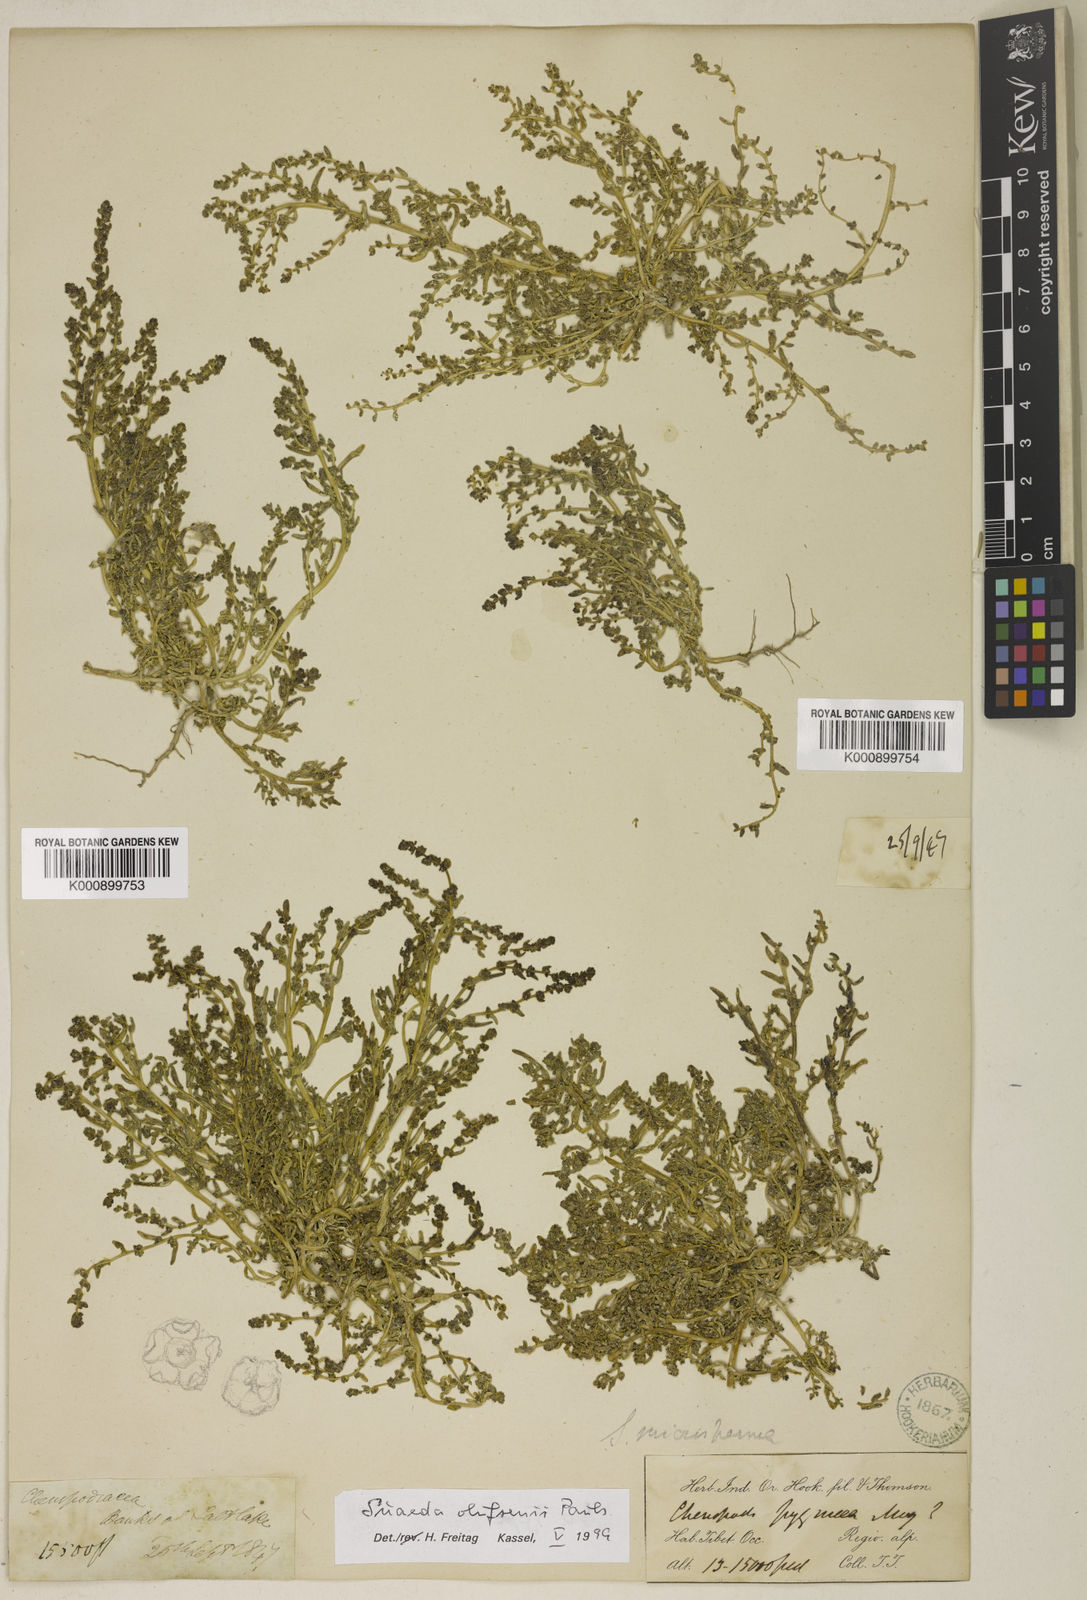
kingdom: Plantae
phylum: Tracheophyta
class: Magnoliopsida
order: Caryophyllales
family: Amaranthaceae
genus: Suaeda
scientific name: Suaeda olufsenii
